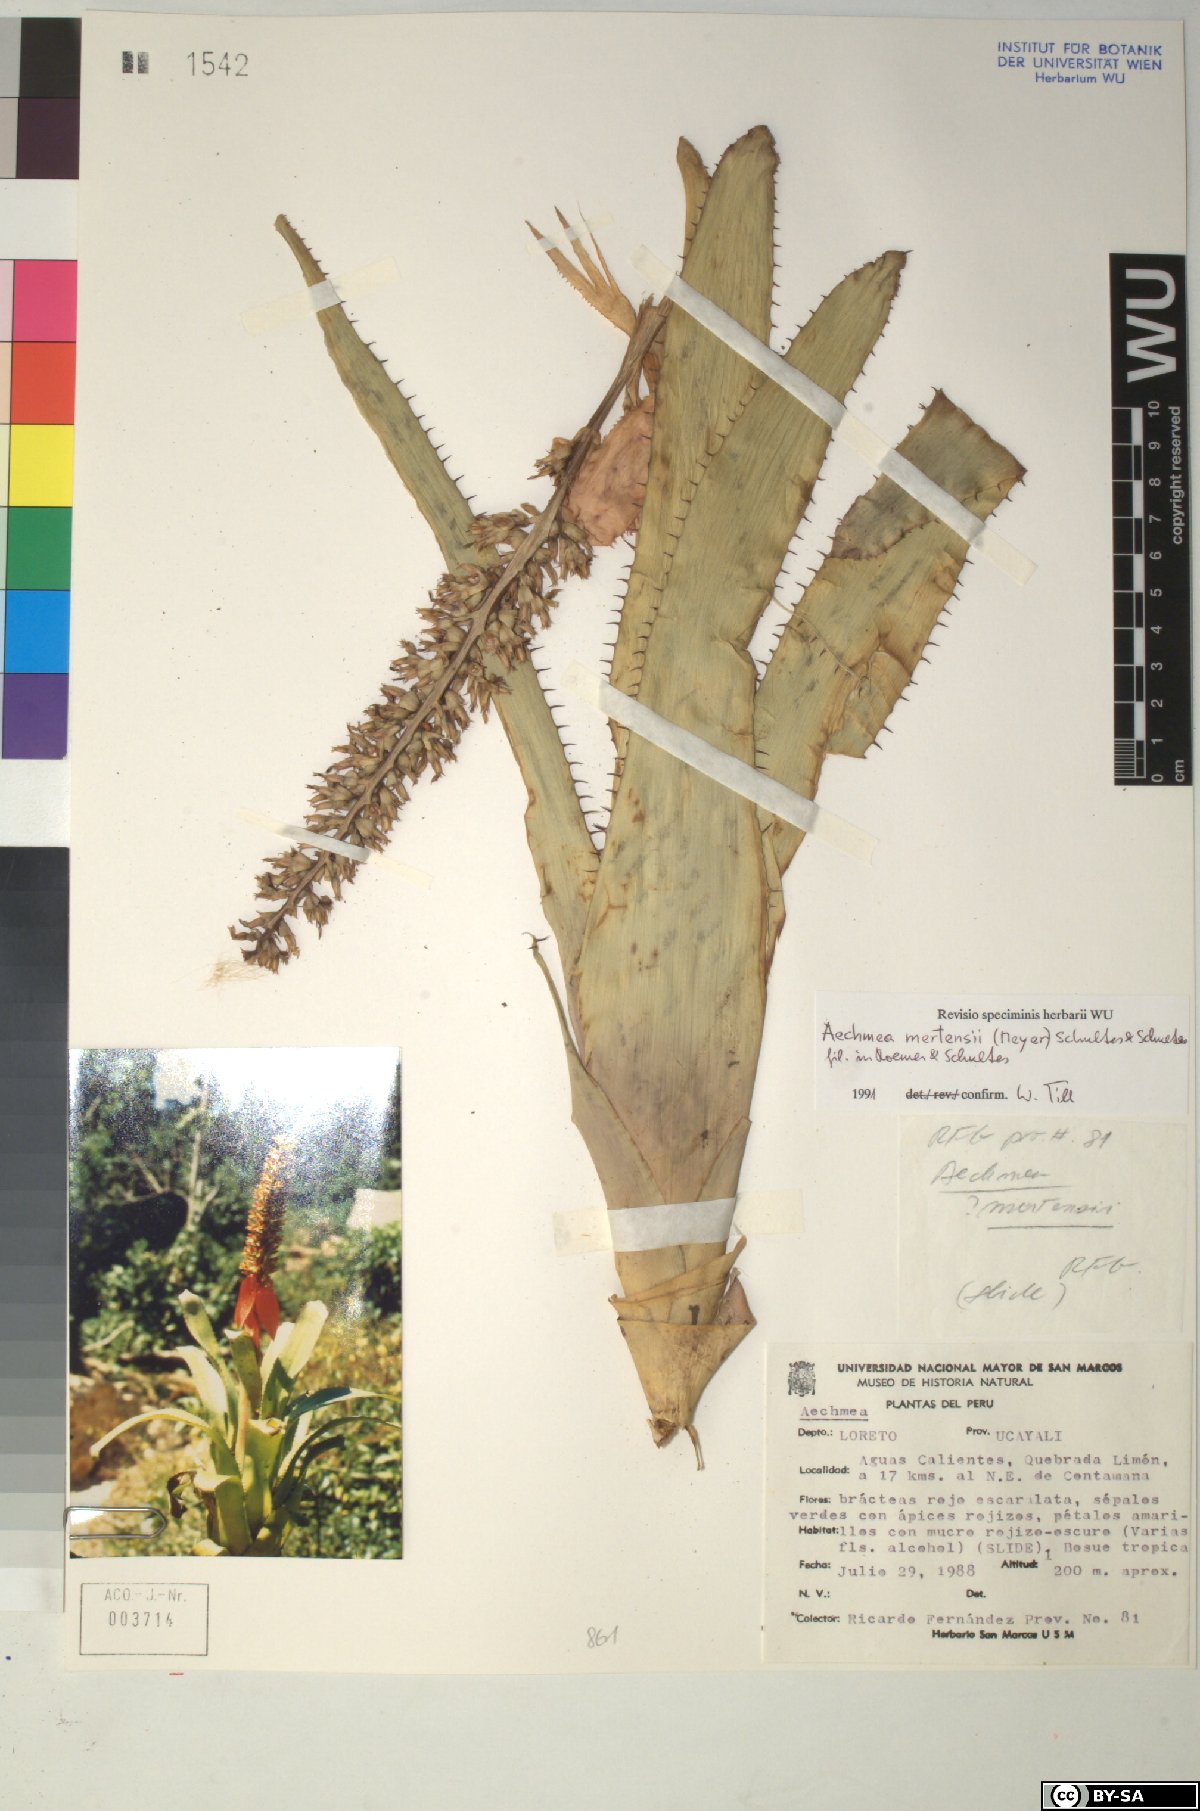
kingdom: Plantae
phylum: Tracheophyta
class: Liliopsida
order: Poales
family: Bromeliaceae
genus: Aechmea
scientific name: Aechmea
